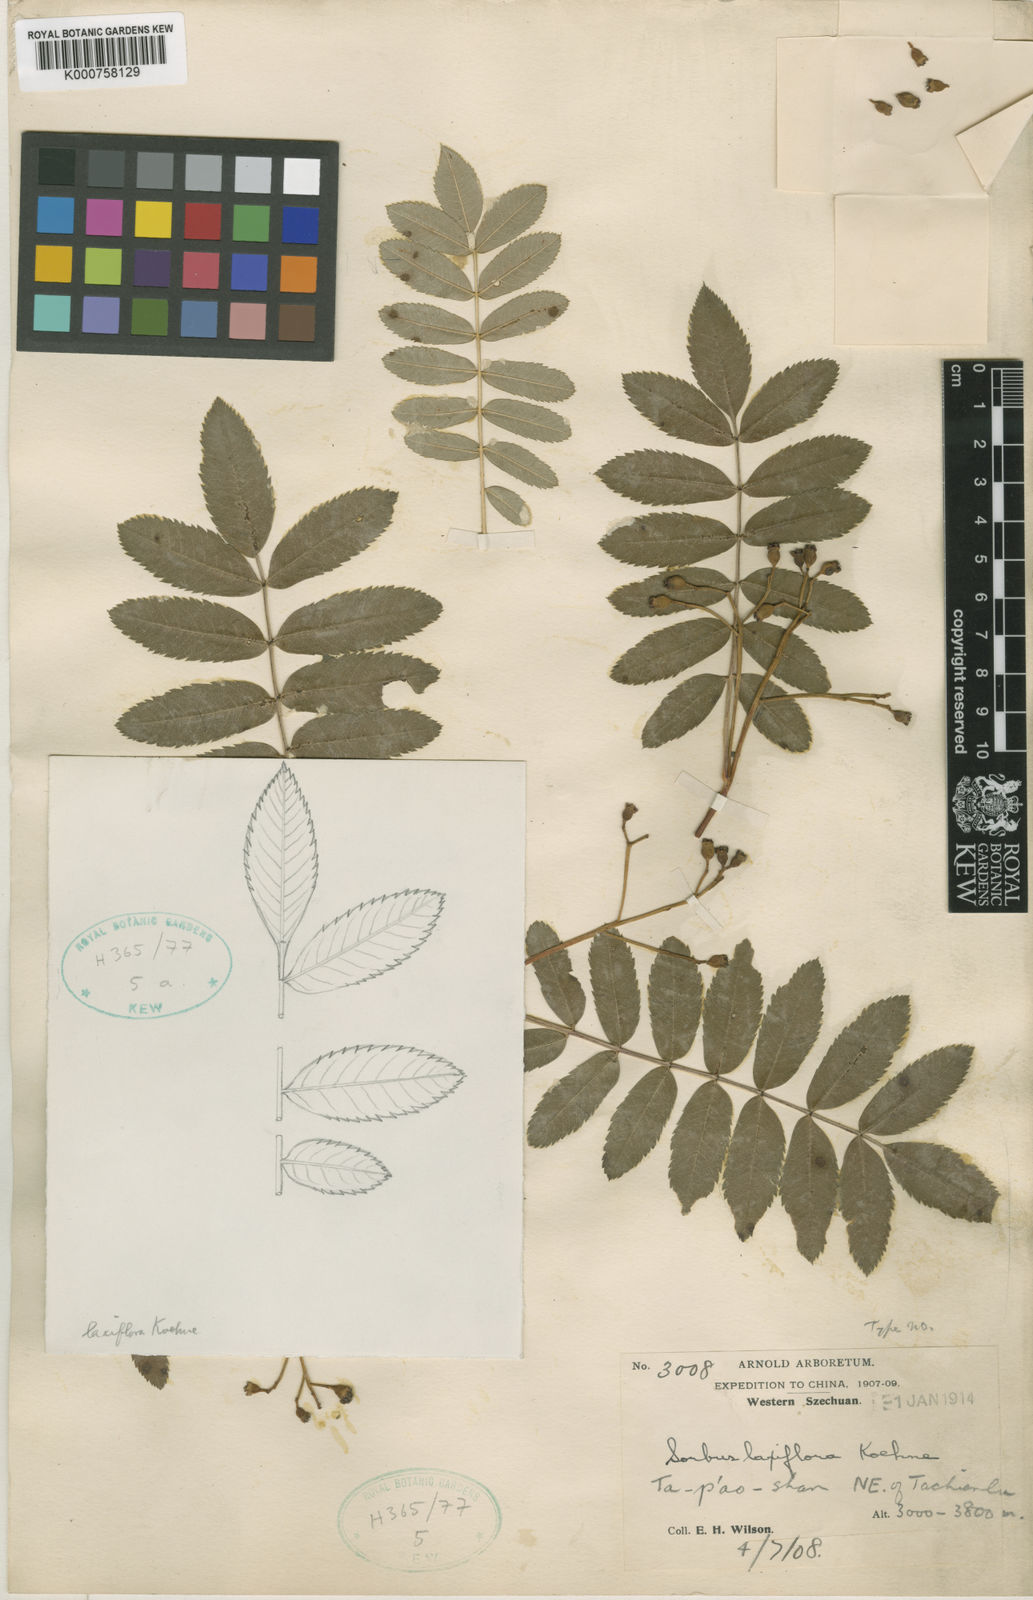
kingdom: Plantae
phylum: Tracheophyta
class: Magnoliopsida
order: Rosales
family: Rosaceae
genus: Sorbus
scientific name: Sorbus hupehensis
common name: Hupeh rowan
